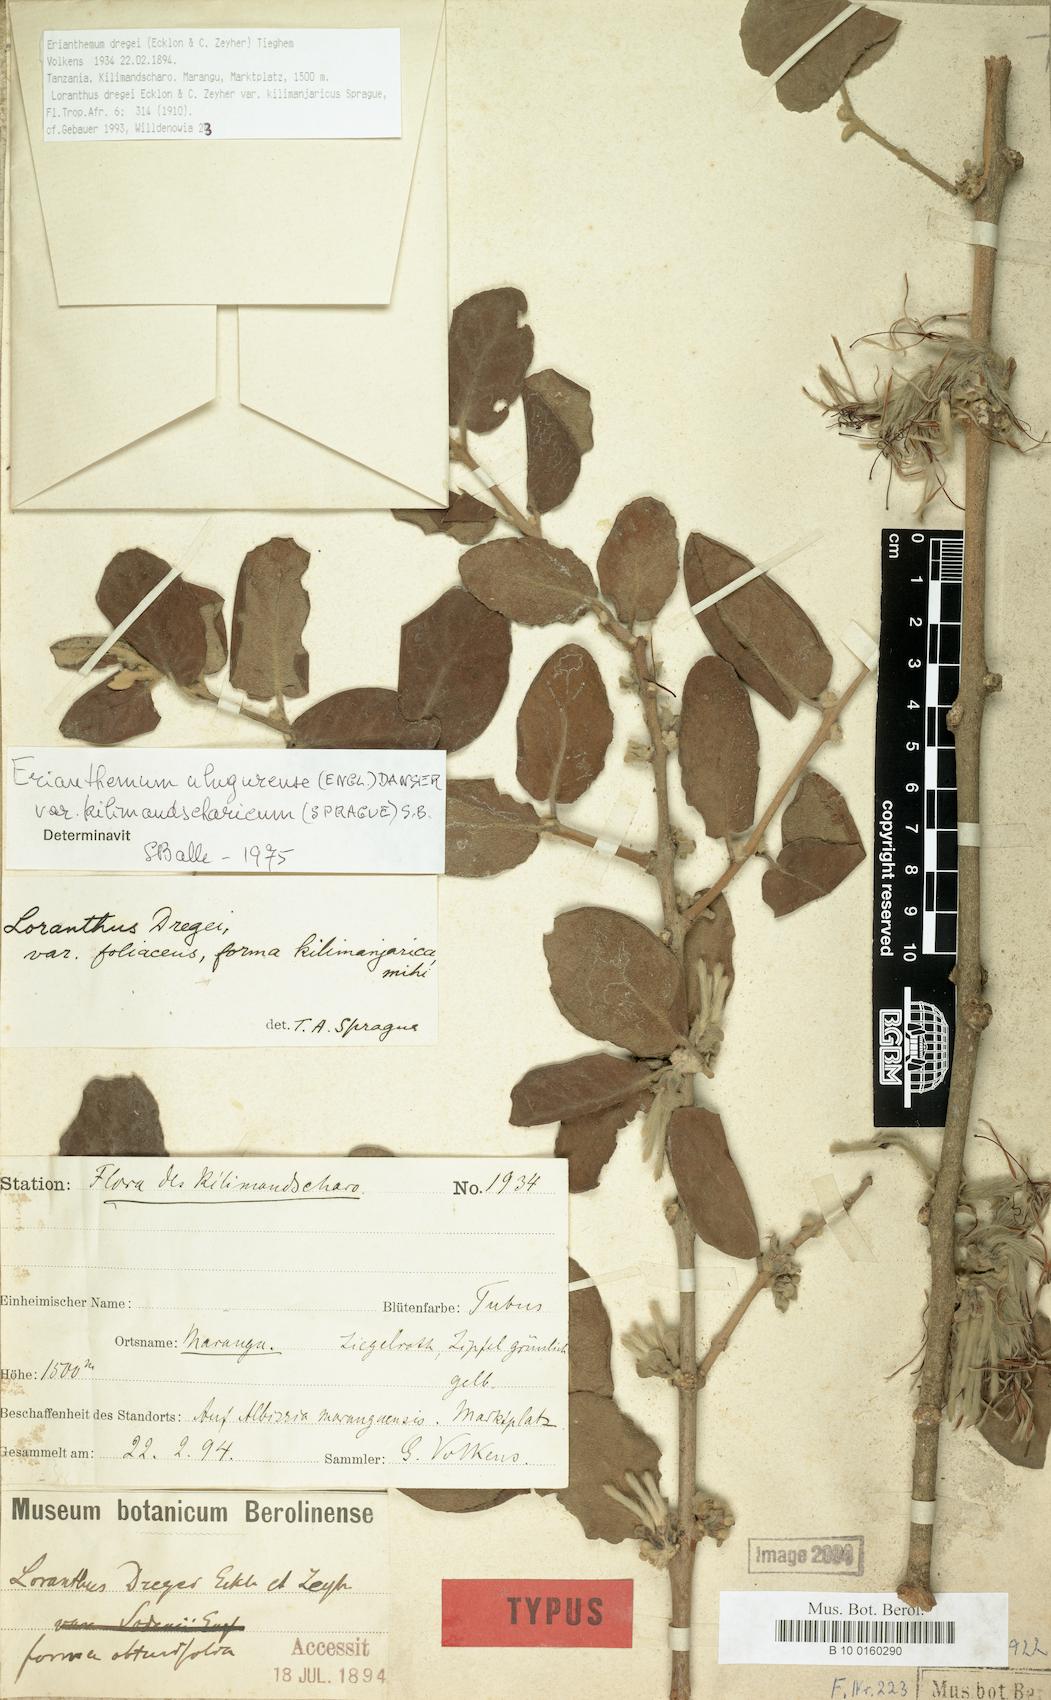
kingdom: Plantae
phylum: Tracheophyta
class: Magnoliopsida
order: Santalales
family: Loranthaceae
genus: Erianthemum
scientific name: Erianthemum dregei
